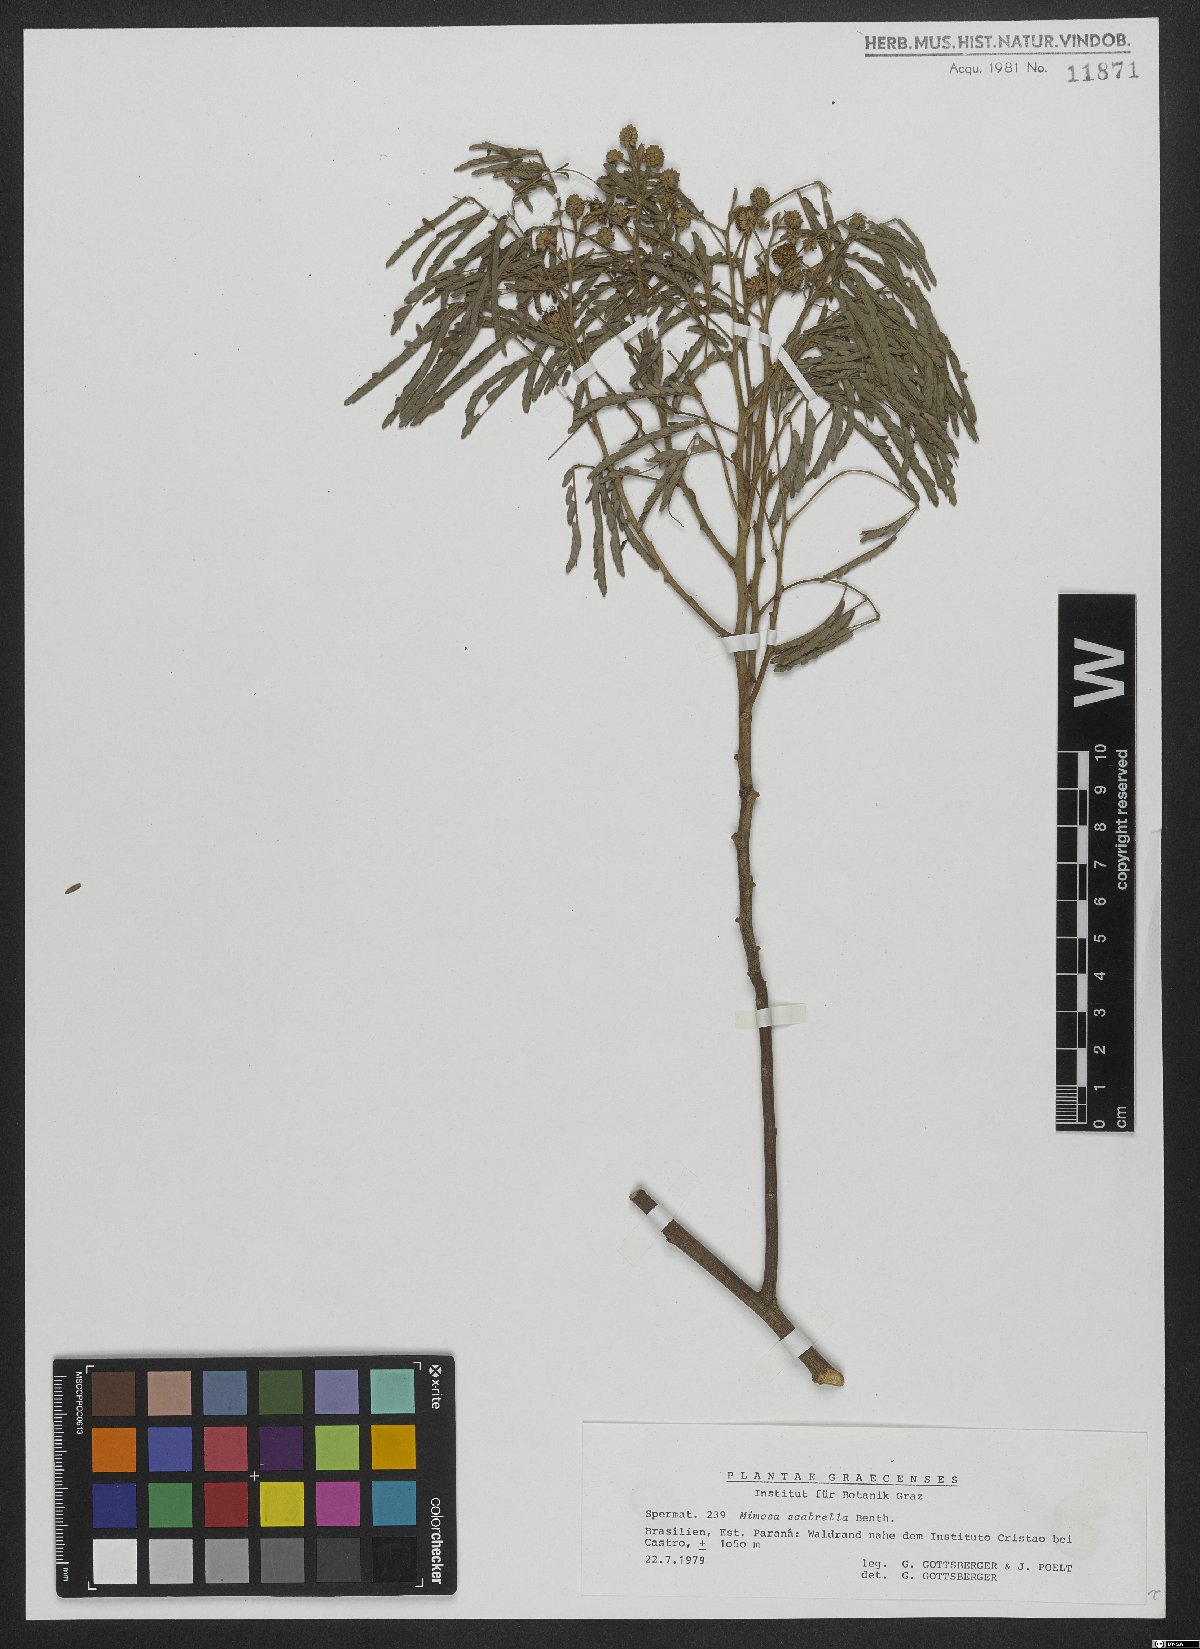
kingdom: Plantae
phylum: Tracheophyta
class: Magnoliopsida
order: Fabales
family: Fabaceae
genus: Mimosa
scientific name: Mimosa scabrella
